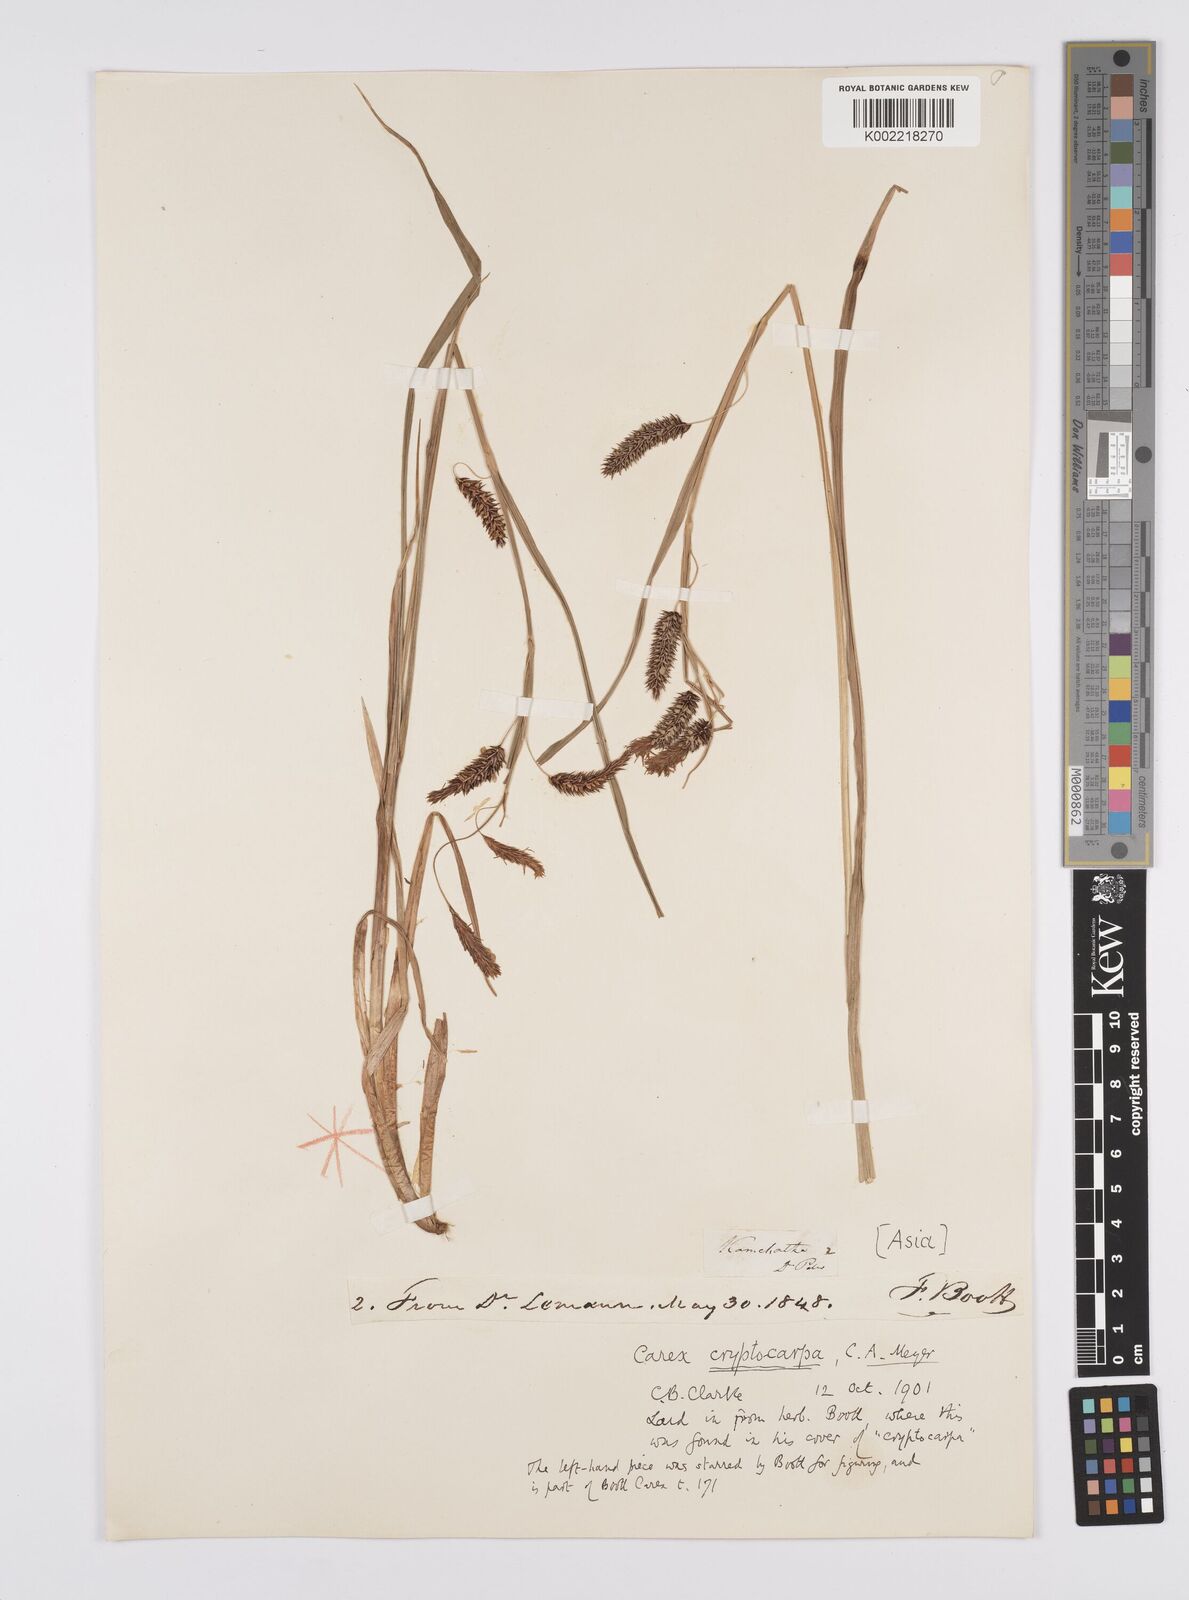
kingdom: Plantae
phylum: Tracheophyta
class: Liliopsida
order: Poales
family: Cyperaceae
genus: Carex
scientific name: Carex lyngbyei
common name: Lyngbye's sedge
